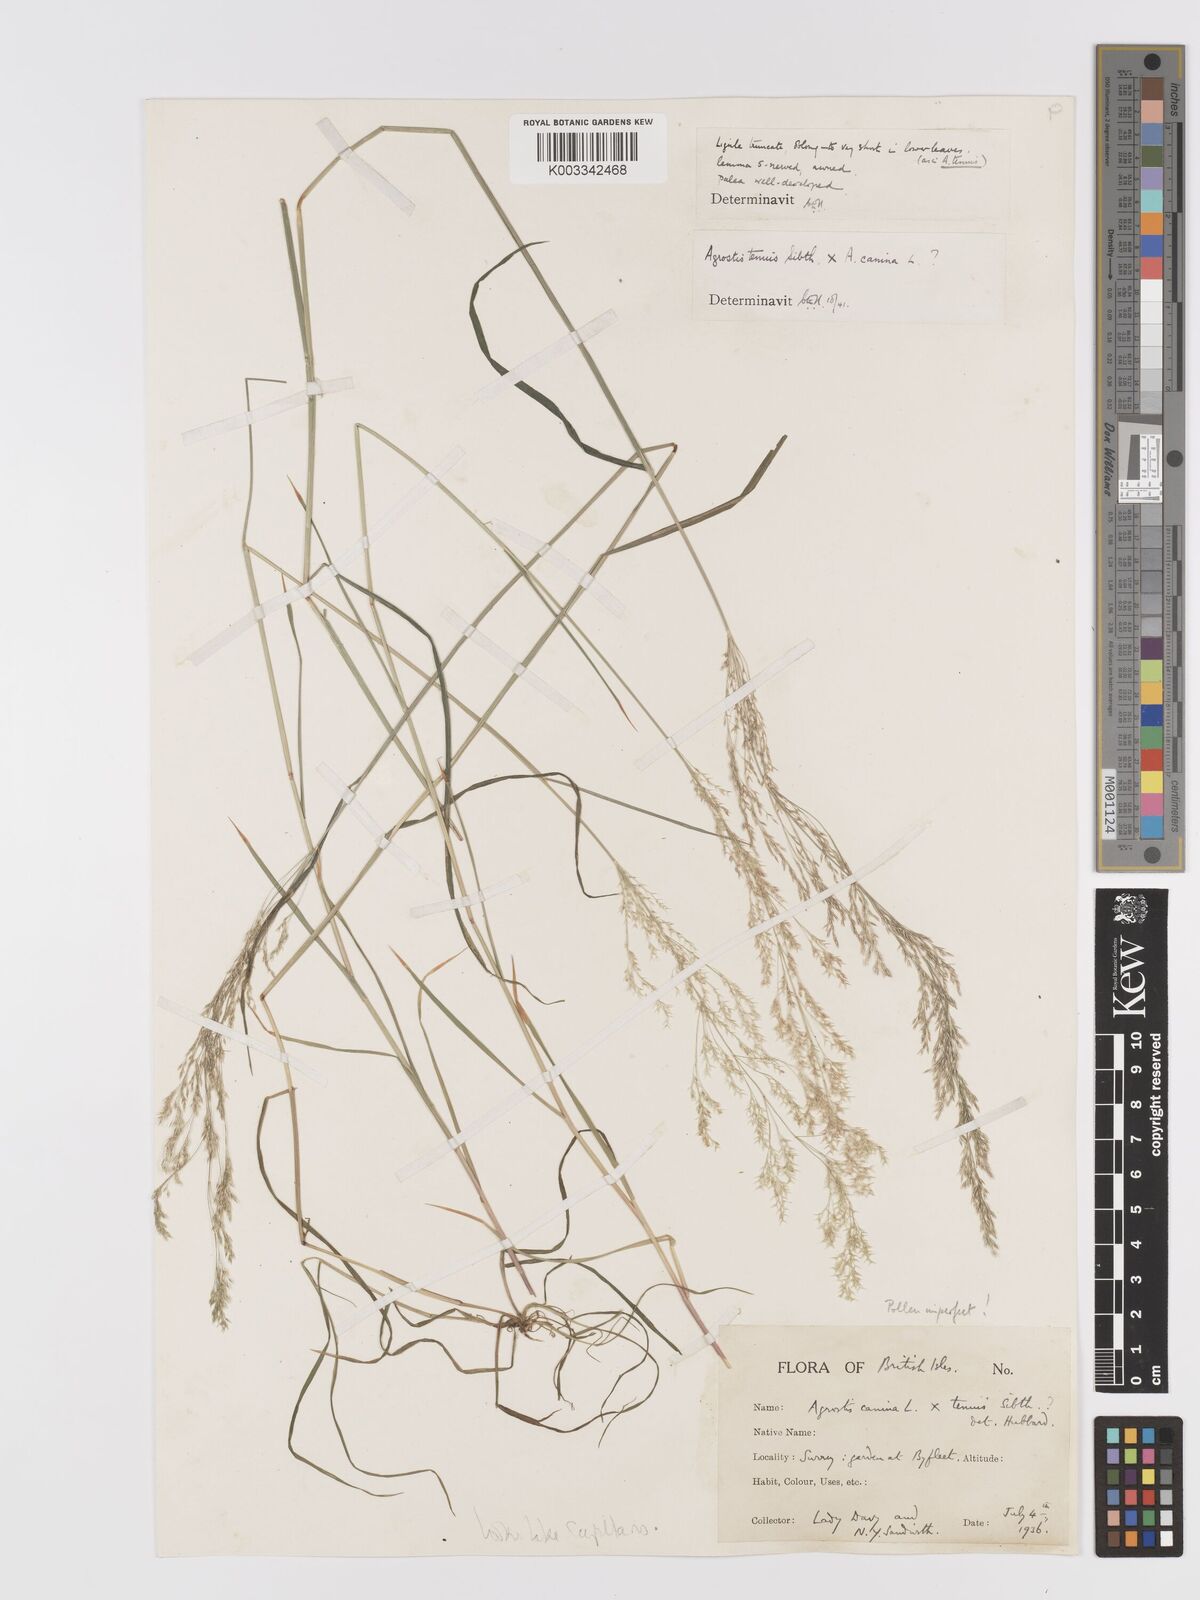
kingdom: Plantae
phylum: Tracheophyta
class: Liliopsida
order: Poales
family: Poaceae
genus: Agrostis
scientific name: Agrostis capillaris
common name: Colonial bentgrass
